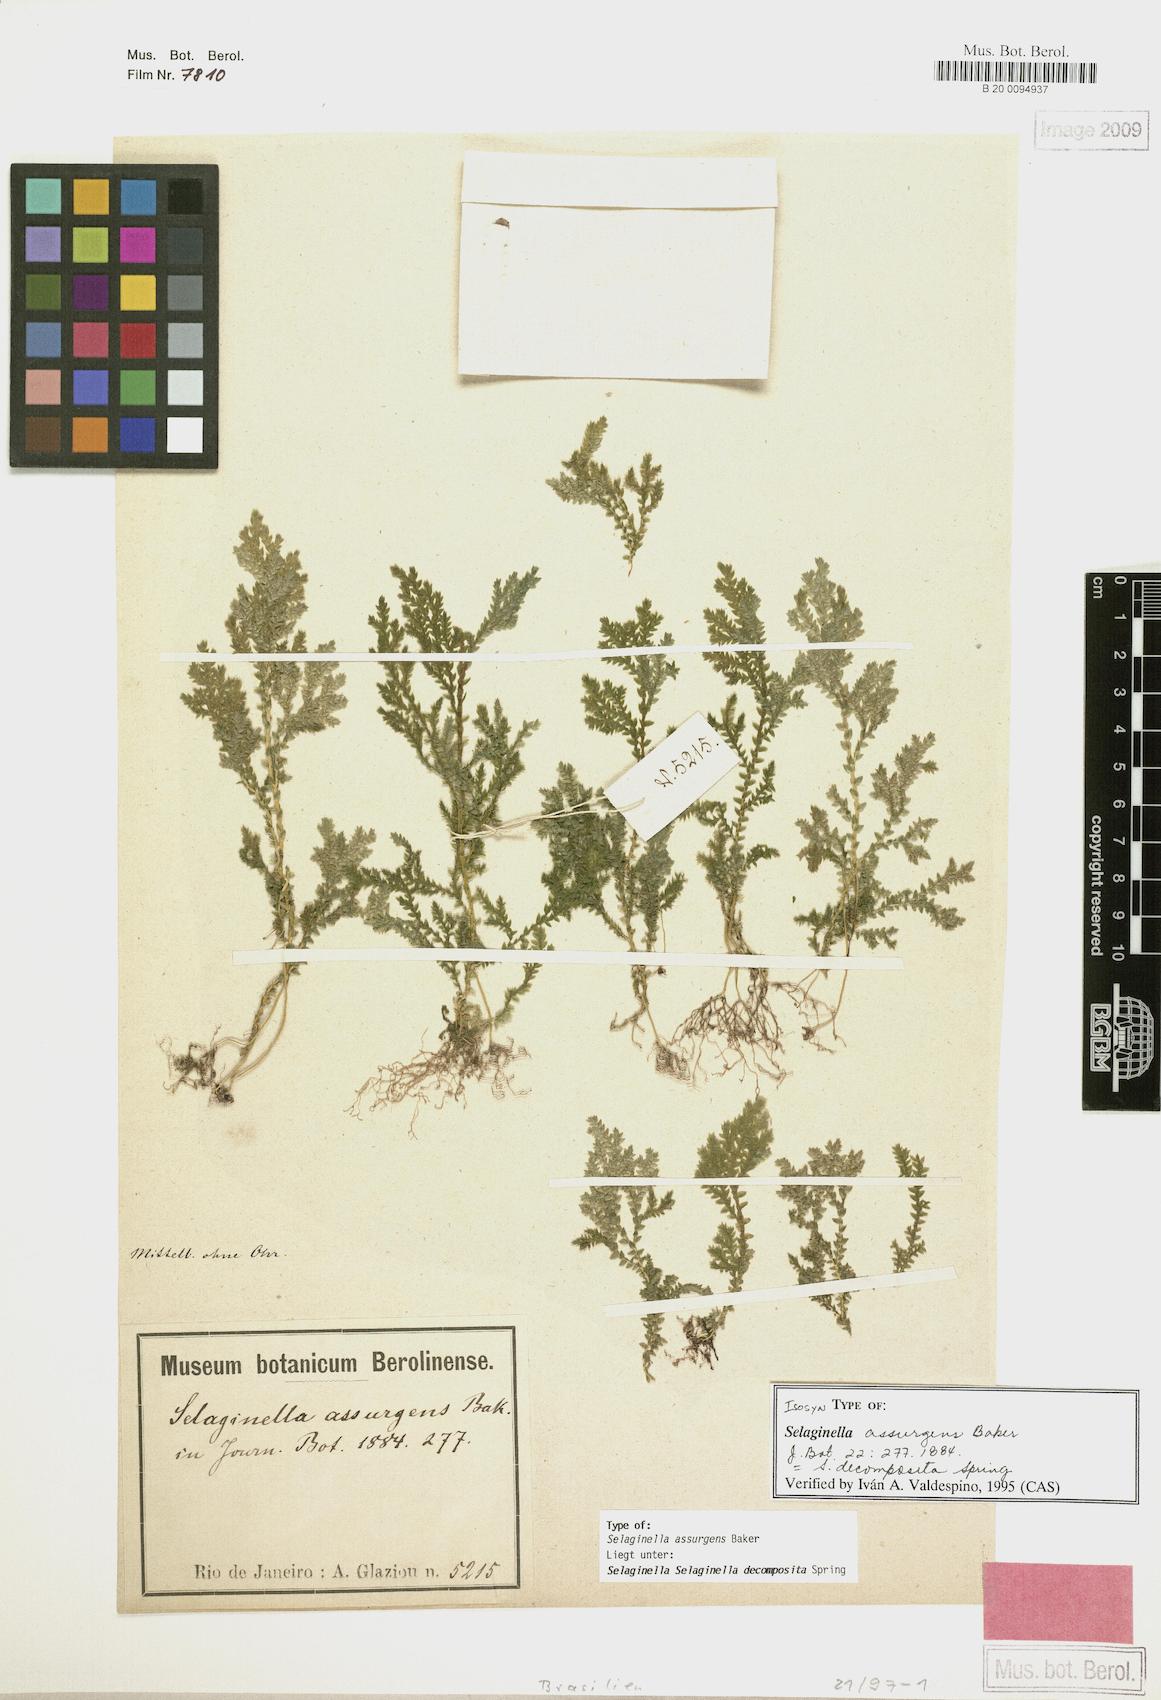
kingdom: Plantae
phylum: Tracheophyta
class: Lycopodiopsida
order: Selaginellales
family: Selaginellaceae
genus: Selaginella
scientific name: Selaginella decomposita
